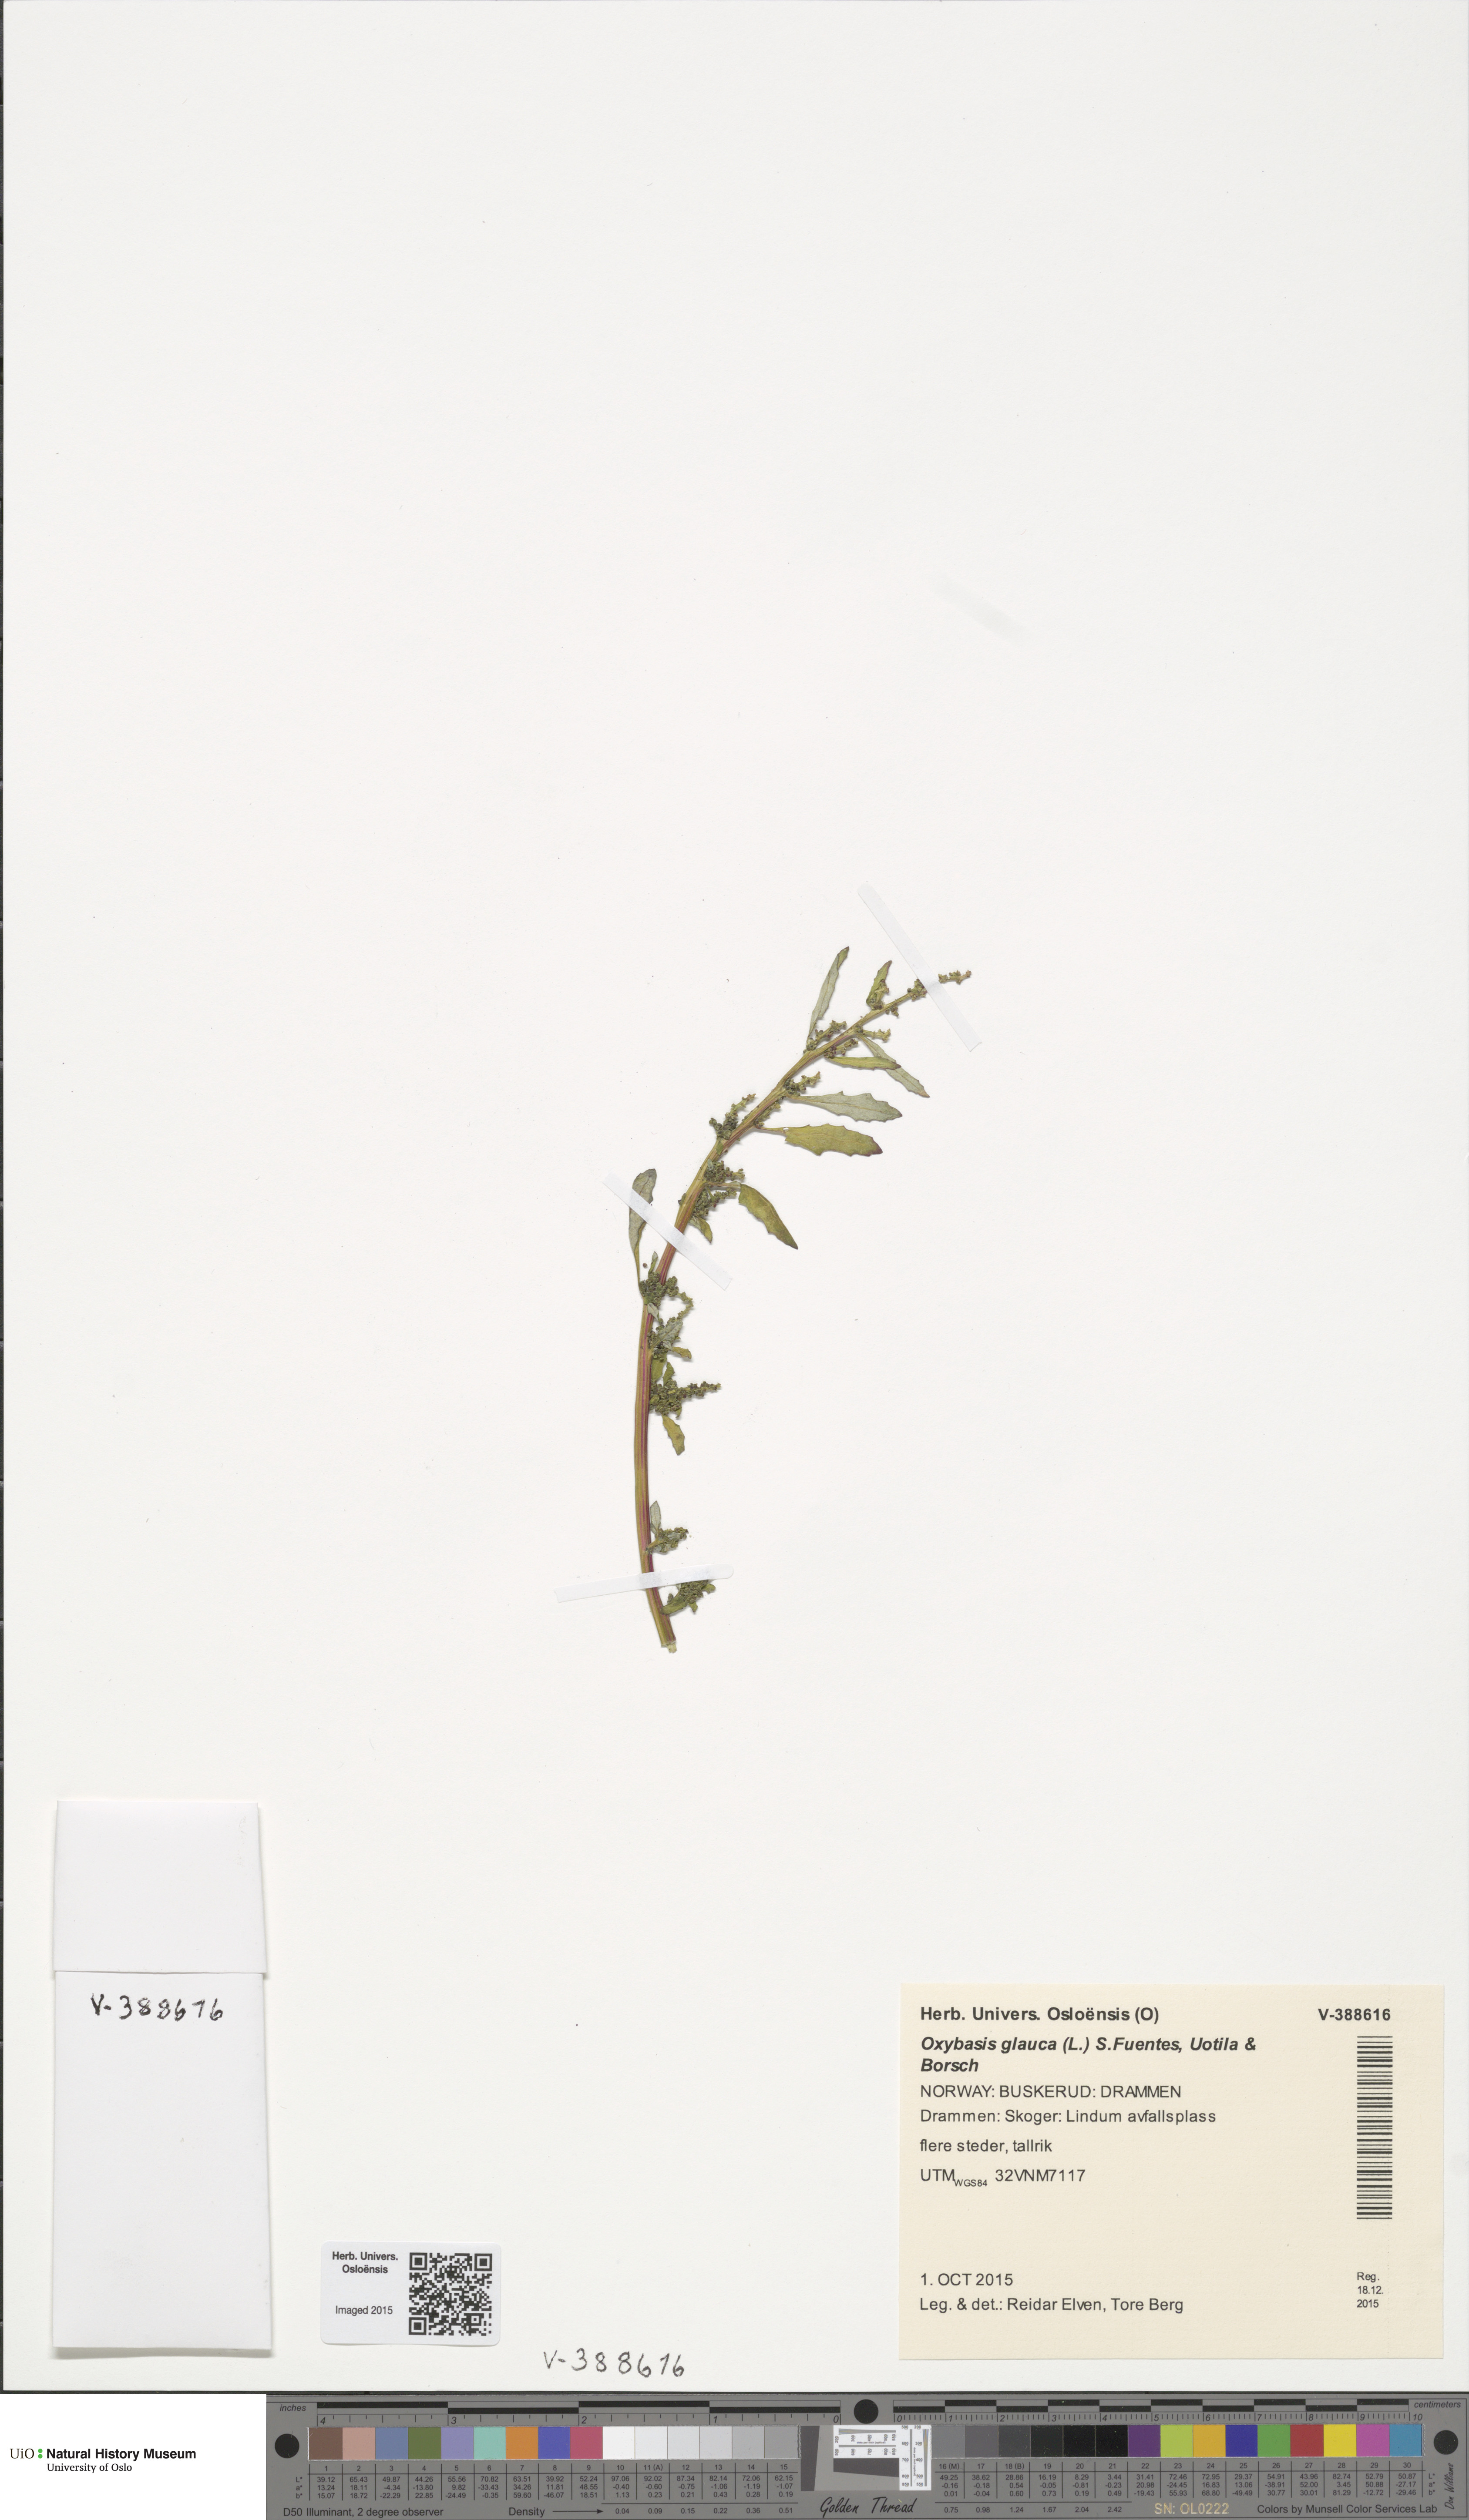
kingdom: Plantae
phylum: Tracheophyta
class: Magnoliopsida
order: Caryophyllales
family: Amaranthaceae
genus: Oxybasis
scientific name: Oxybasis glauca
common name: Glaucous goosefoot
